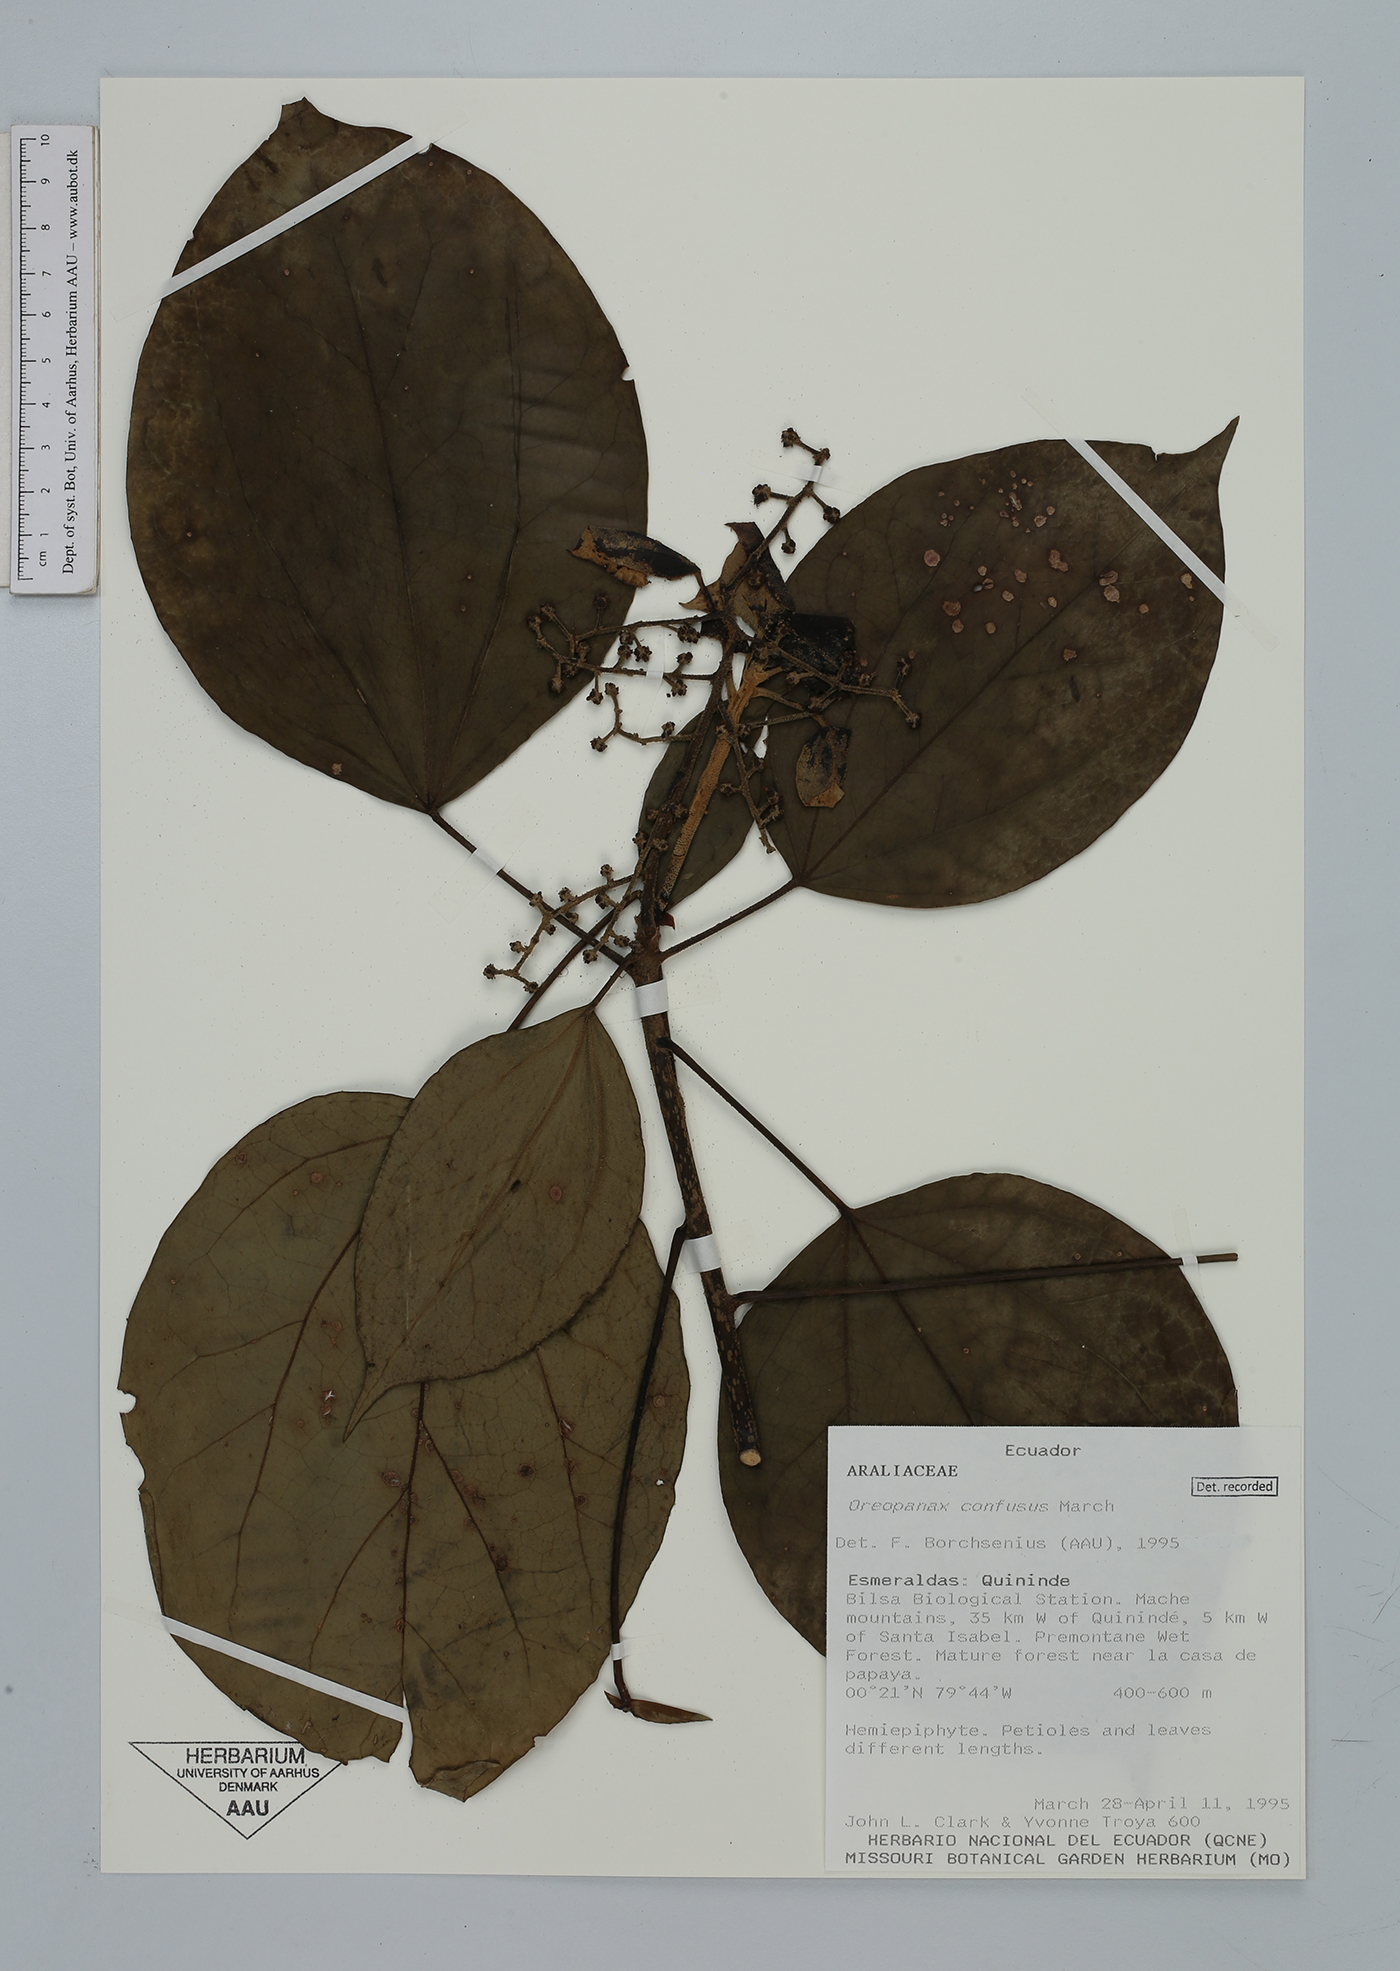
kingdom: Plantae
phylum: Tracheophyta
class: Magnoliopsida
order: Apiales
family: Araliaceae
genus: Oreopanax
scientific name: Oreopanax confusus
